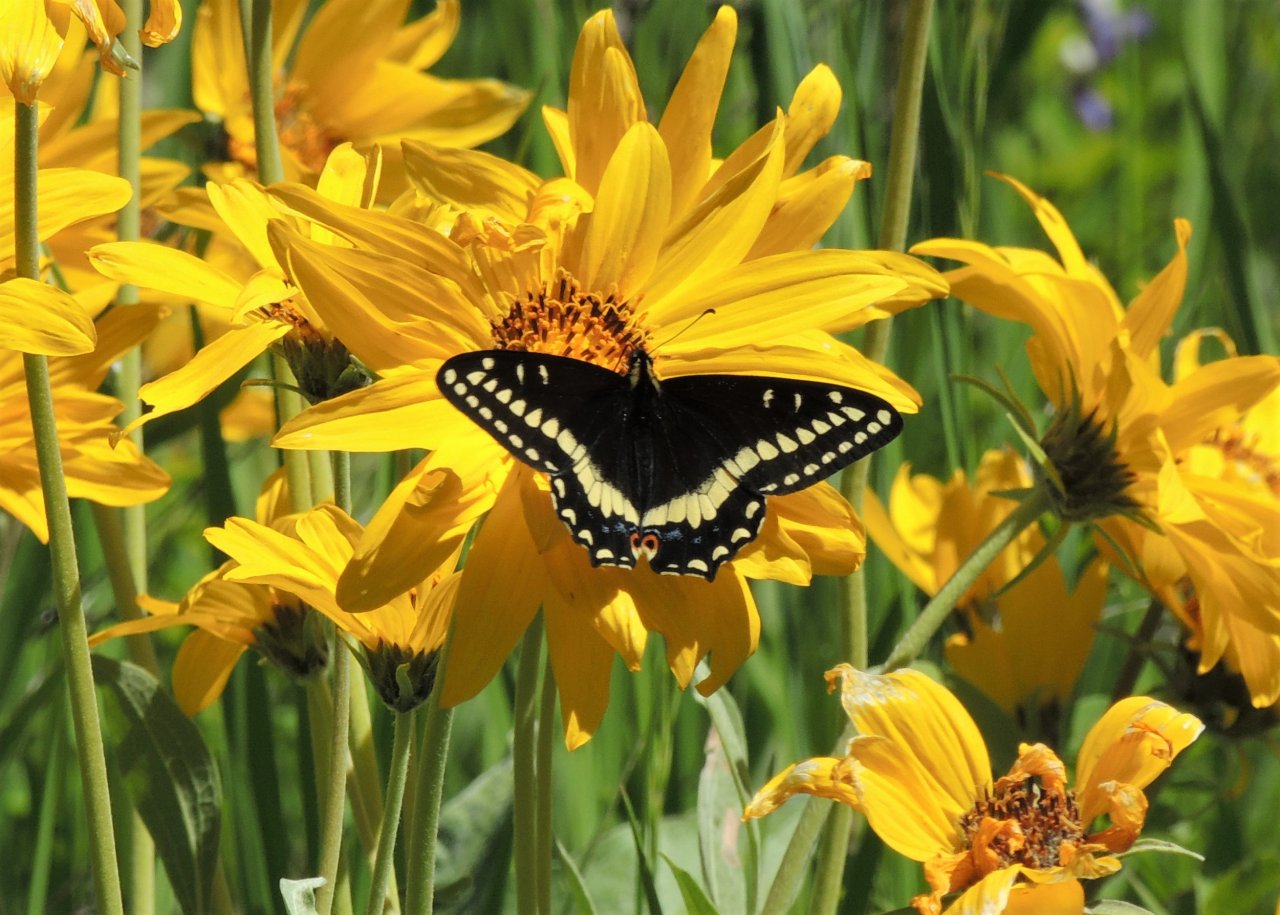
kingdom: Animalia
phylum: Arthropoda
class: Insecta
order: Lepidoptera
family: Papilionidae
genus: Papilio
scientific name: Papilio indra
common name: Indra Swallowtail
